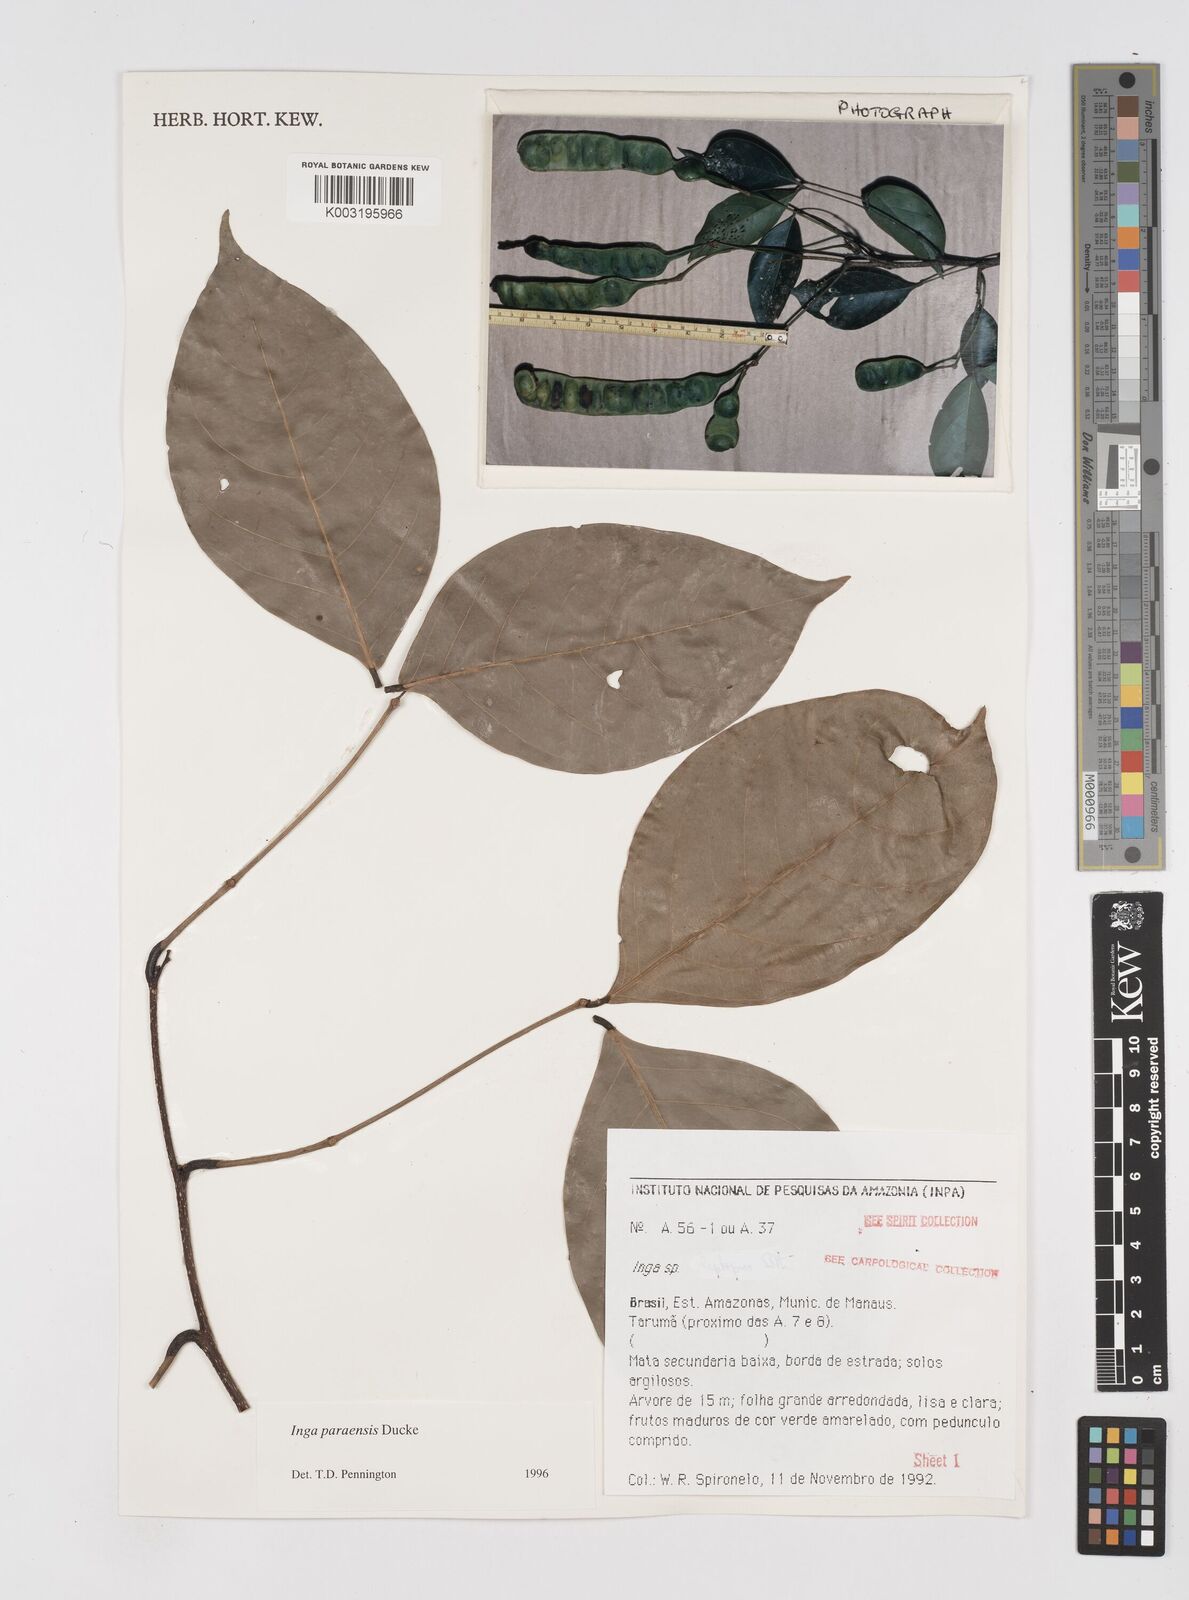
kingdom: Plantae
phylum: Tracheophyta
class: Magnoliopsida
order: Fabales
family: Fabaceae
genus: Inga
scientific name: Inga paraensis
